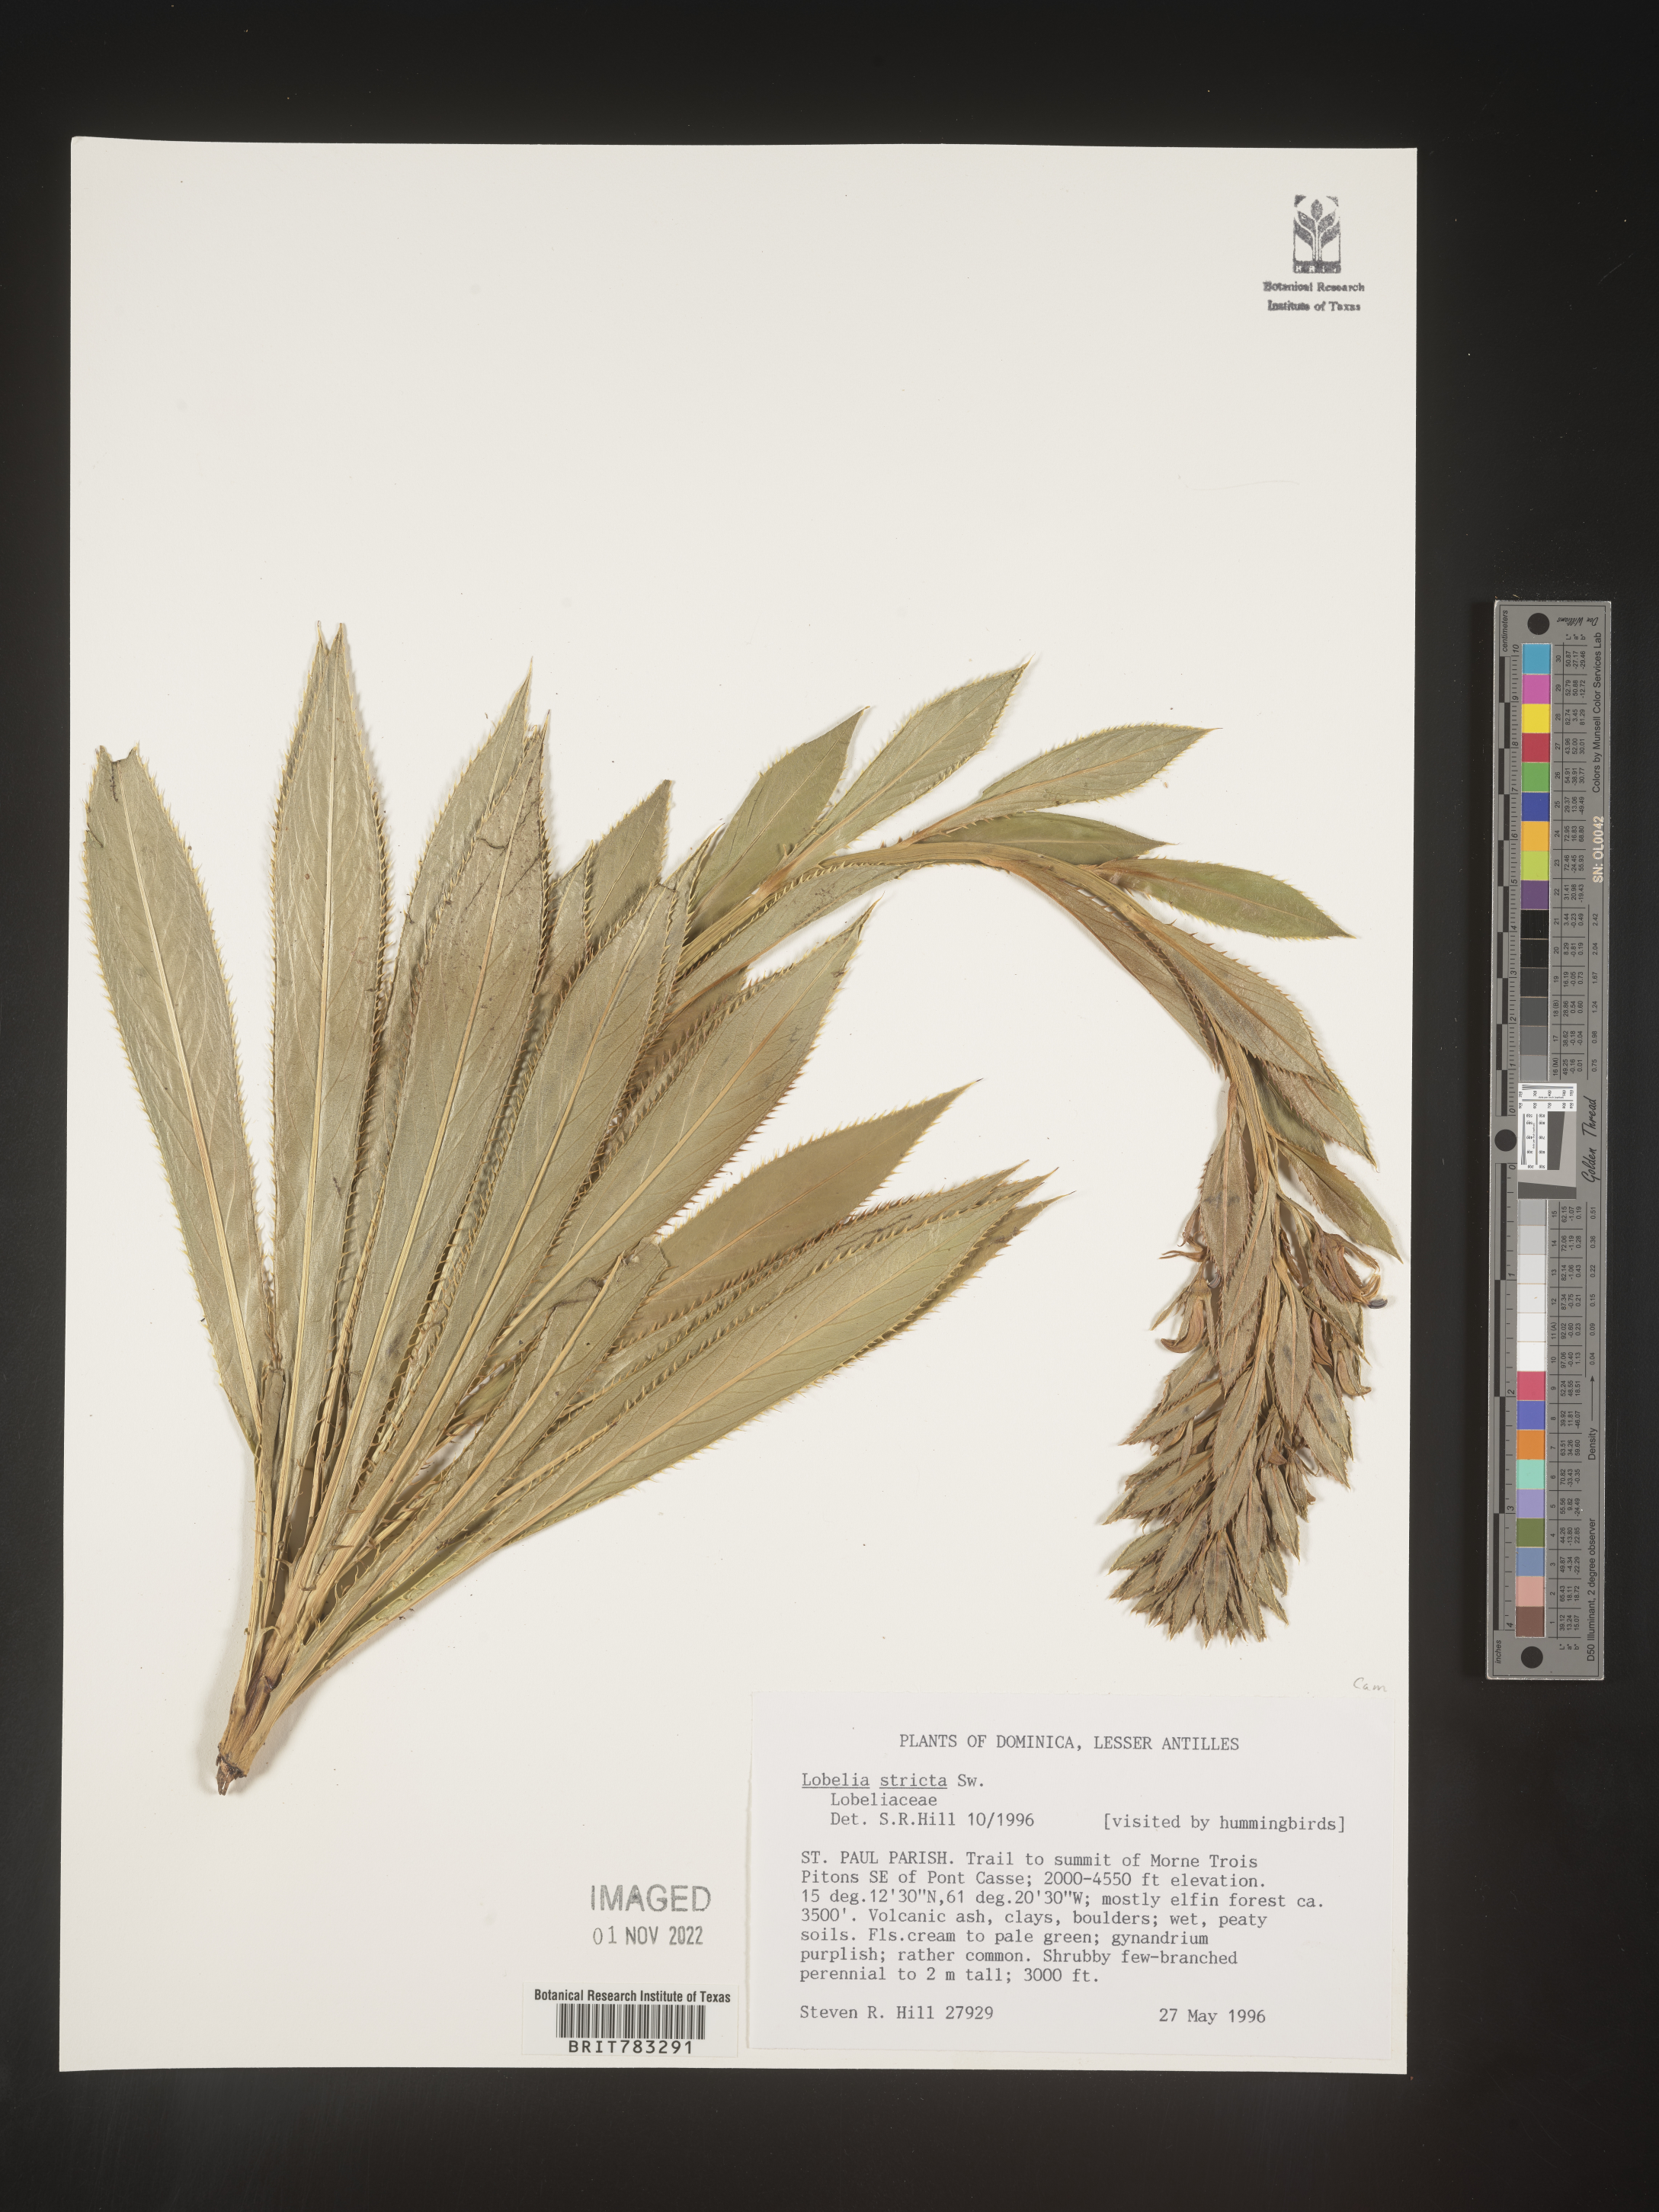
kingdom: Plantae
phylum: Tracheophyta
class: Magnoliopsida
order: Asterales
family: Campanulaceae
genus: Lobelia
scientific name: Lobelia
